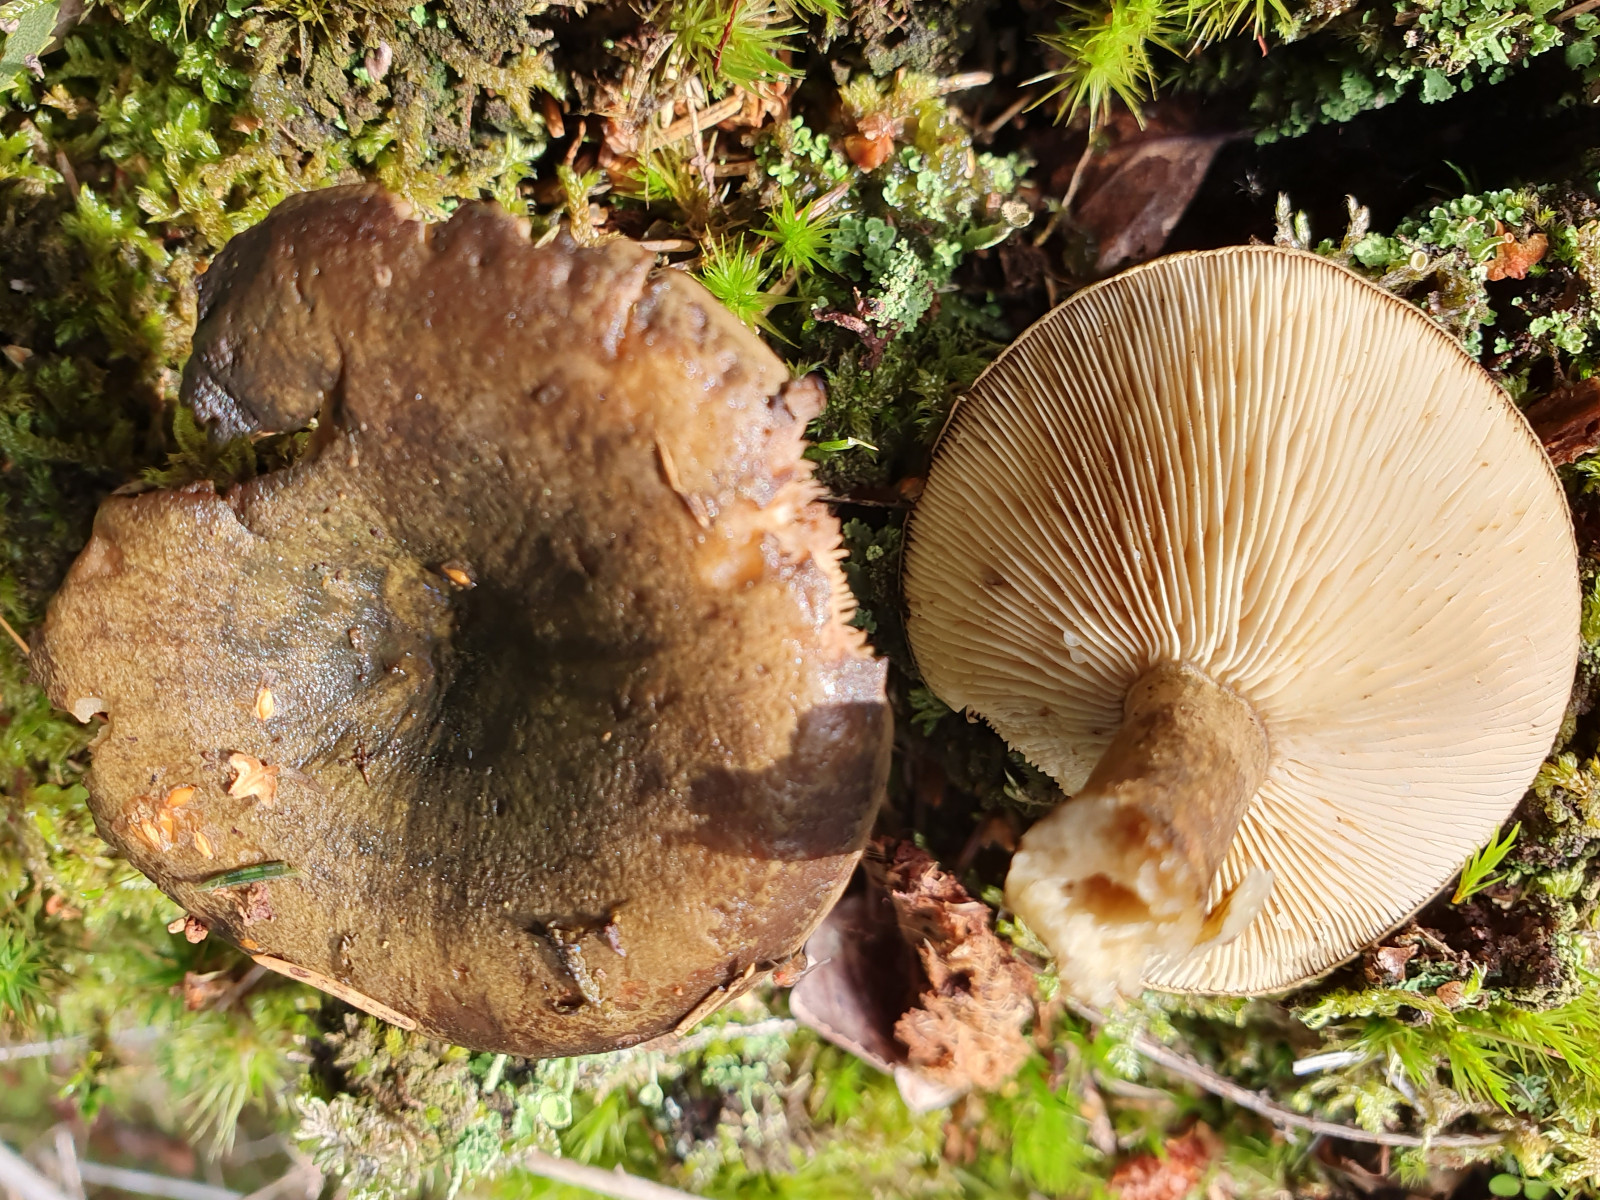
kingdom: Fungi
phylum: Basidiomycota
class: Agaricomycetes
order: Russulales
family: Russulaceae
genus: Lactarius
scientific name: Lactarius necator
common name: manddraber-mælkehat
